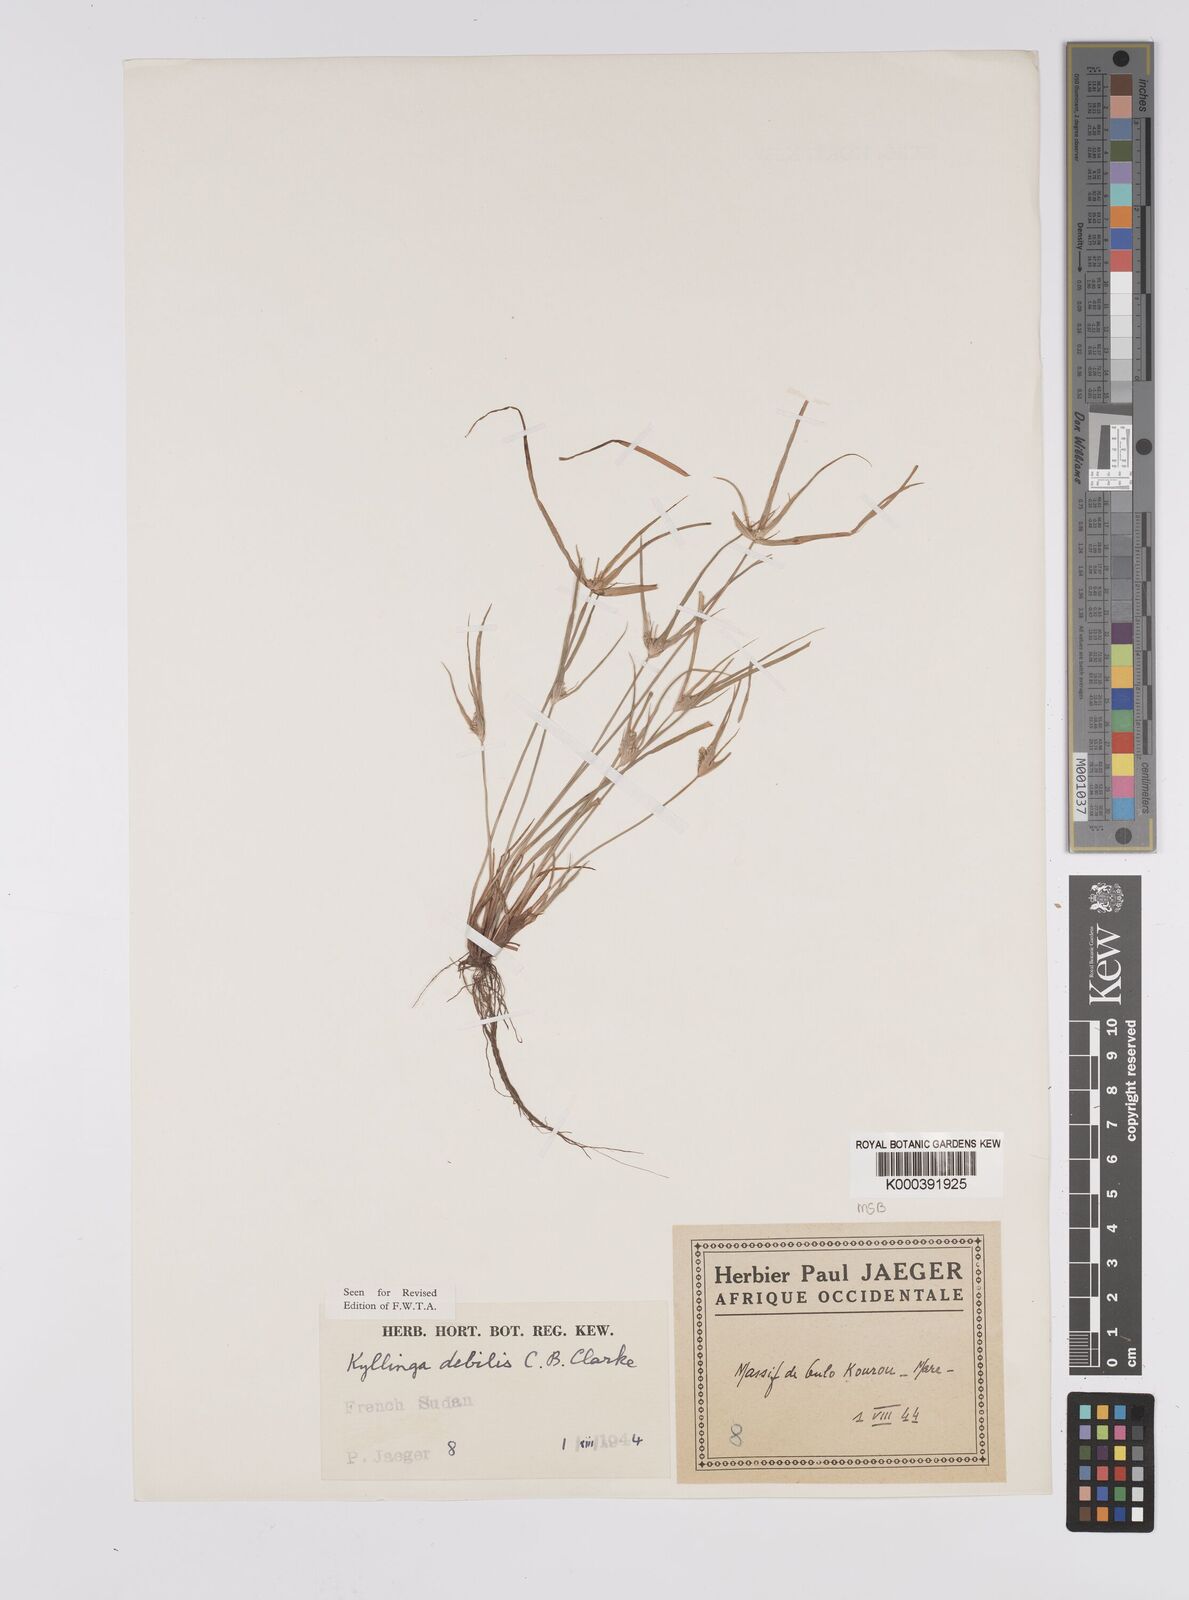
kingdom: Plantae
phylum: Tracheophyta
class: Liliopsida
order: Poales
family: Cyperaceae
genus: Cyperus
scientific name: Cyperus leptorhachis
